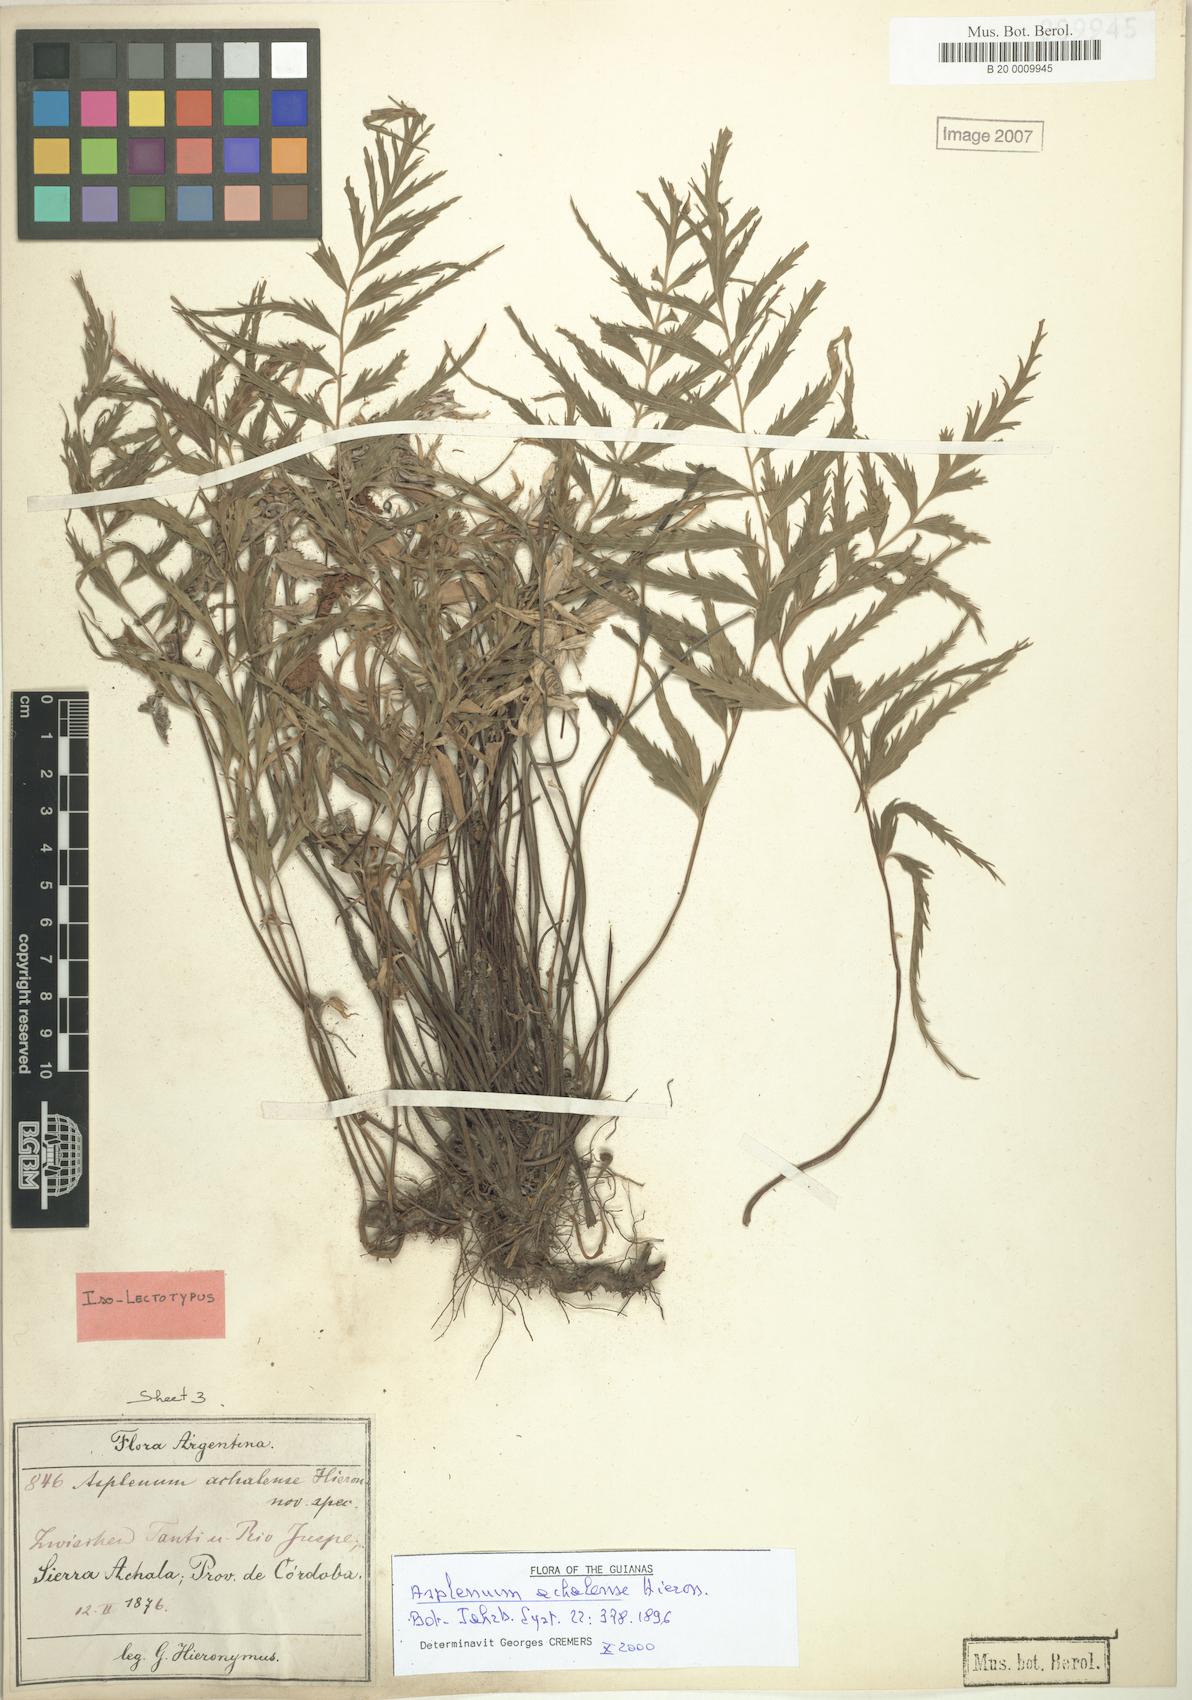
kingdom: Plantae
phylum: Tracheophyta
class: Polypodiopsida
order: Polypodiales
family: Aspleniaceae
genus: Asplenium
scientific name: Asplenium achalense
